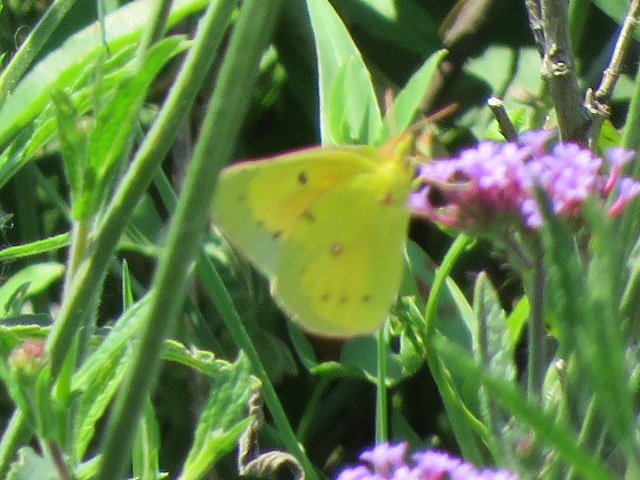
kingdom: Animalia
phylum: Arthropoda
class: Insecta
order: Lepidoptera
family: Pieridae
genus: Colias
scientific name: Colias eurytheme
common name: Orange Sulphur
